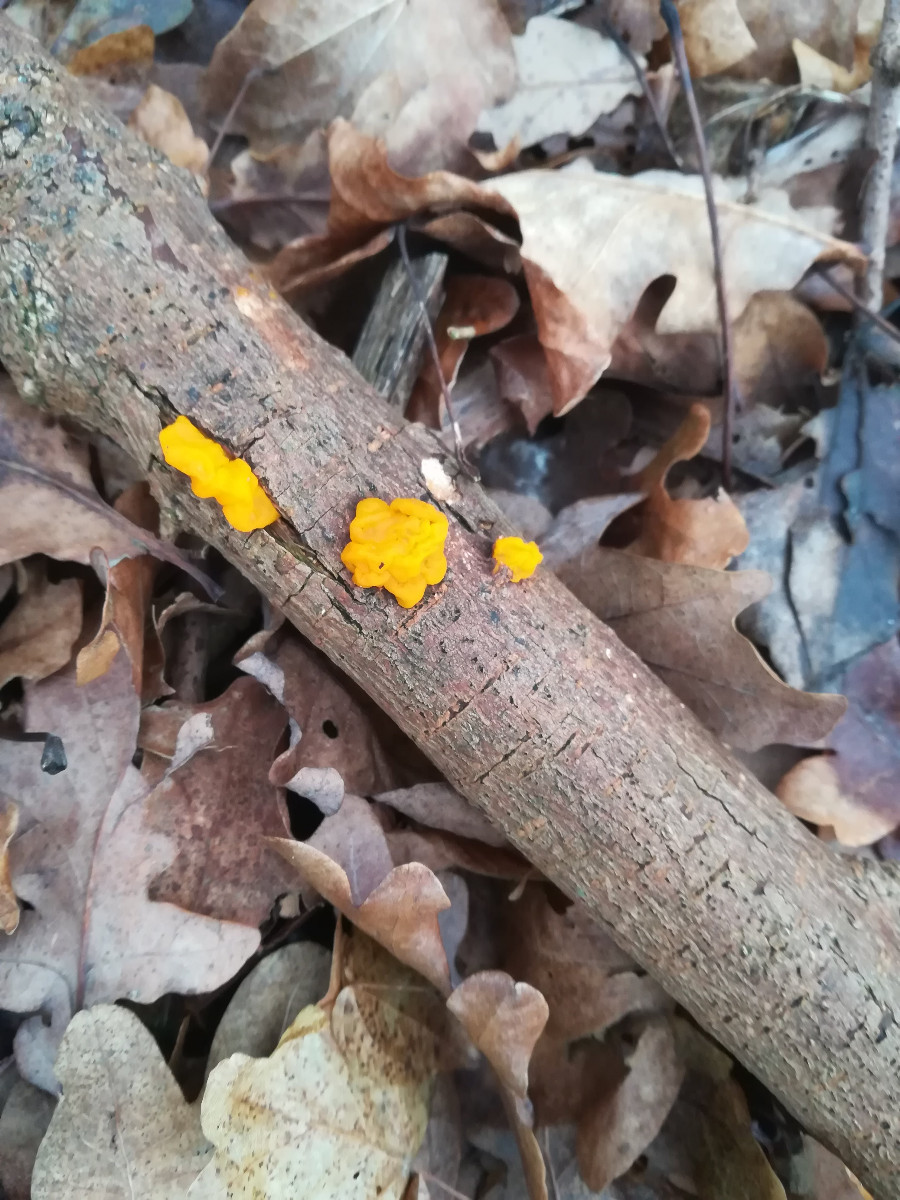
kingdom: Fungi
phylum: Basidiomycota
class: Tremellomycetes
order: Tremellales
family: Tremellaceae
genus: Tremella
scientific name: Tremella mesenterica
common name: gul bævresvamp
